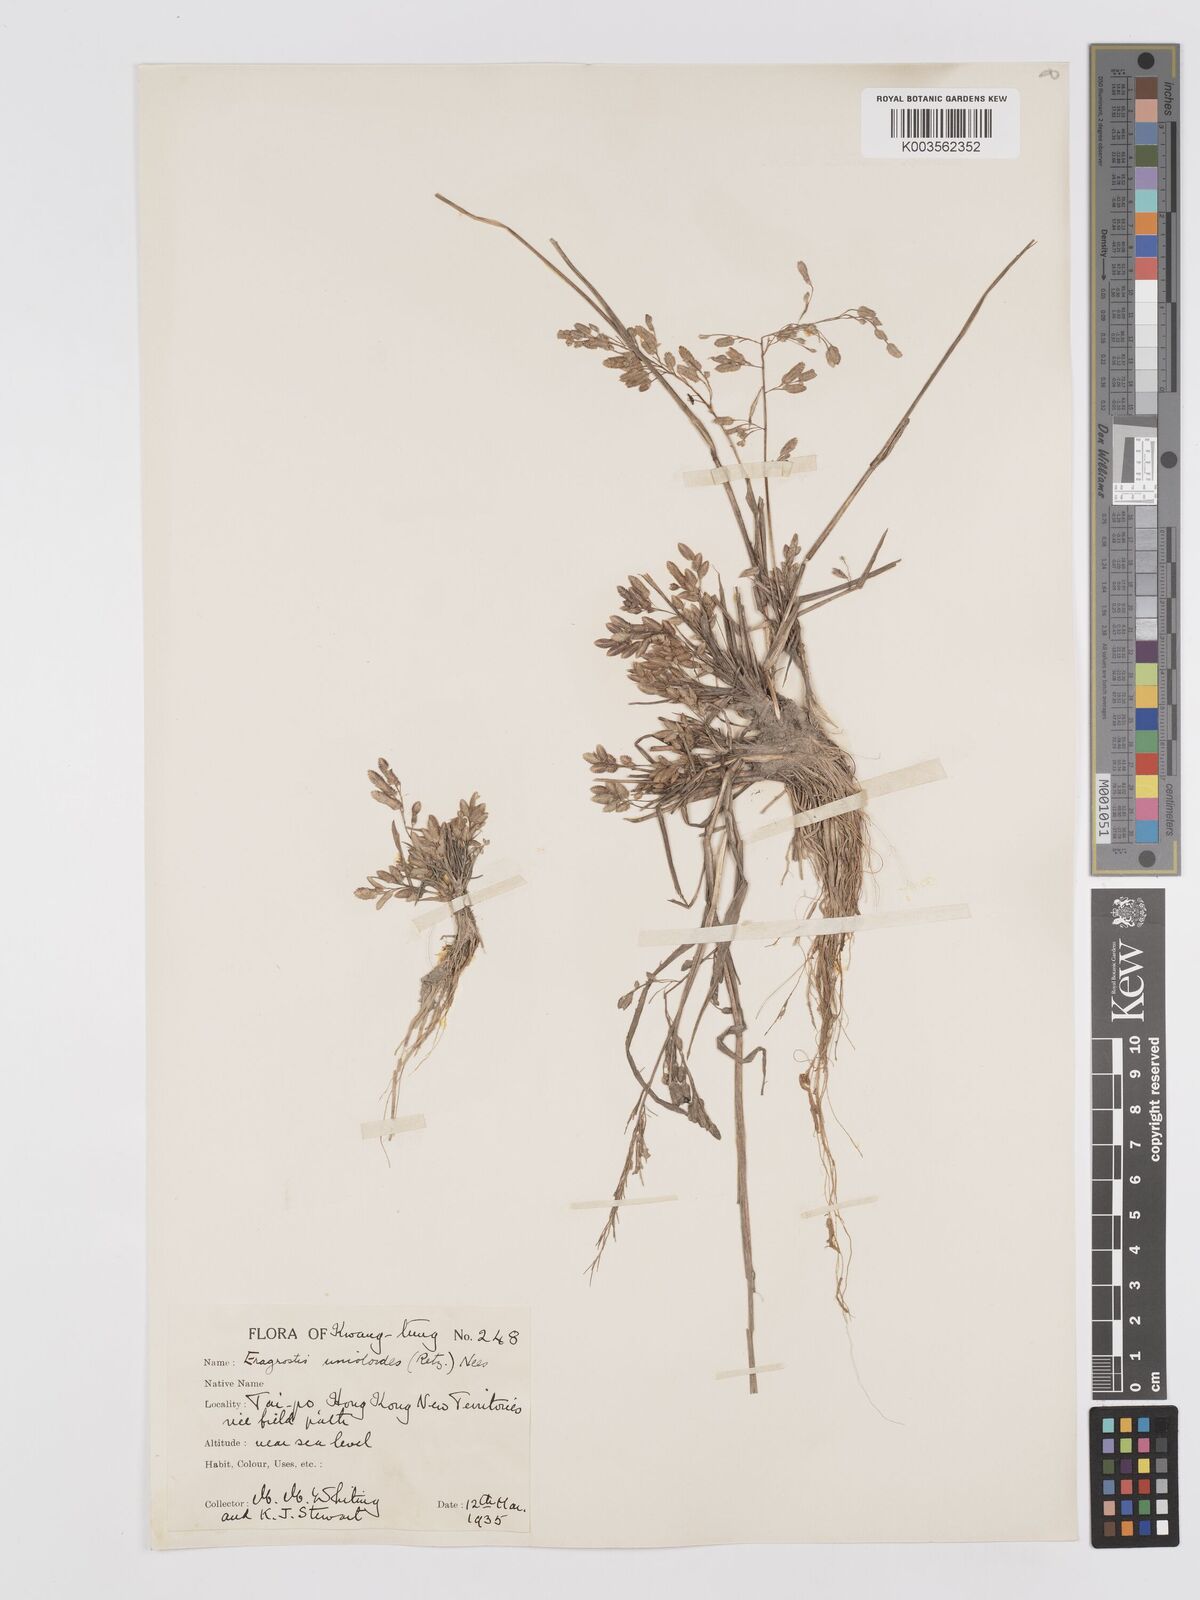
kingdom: Plantae
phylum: Tracheophyta
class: Liliopsida
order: Poales
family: Poaceae
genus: Eragrostis
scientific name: Eragrostis unioloides
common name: Chinese lovegrass
